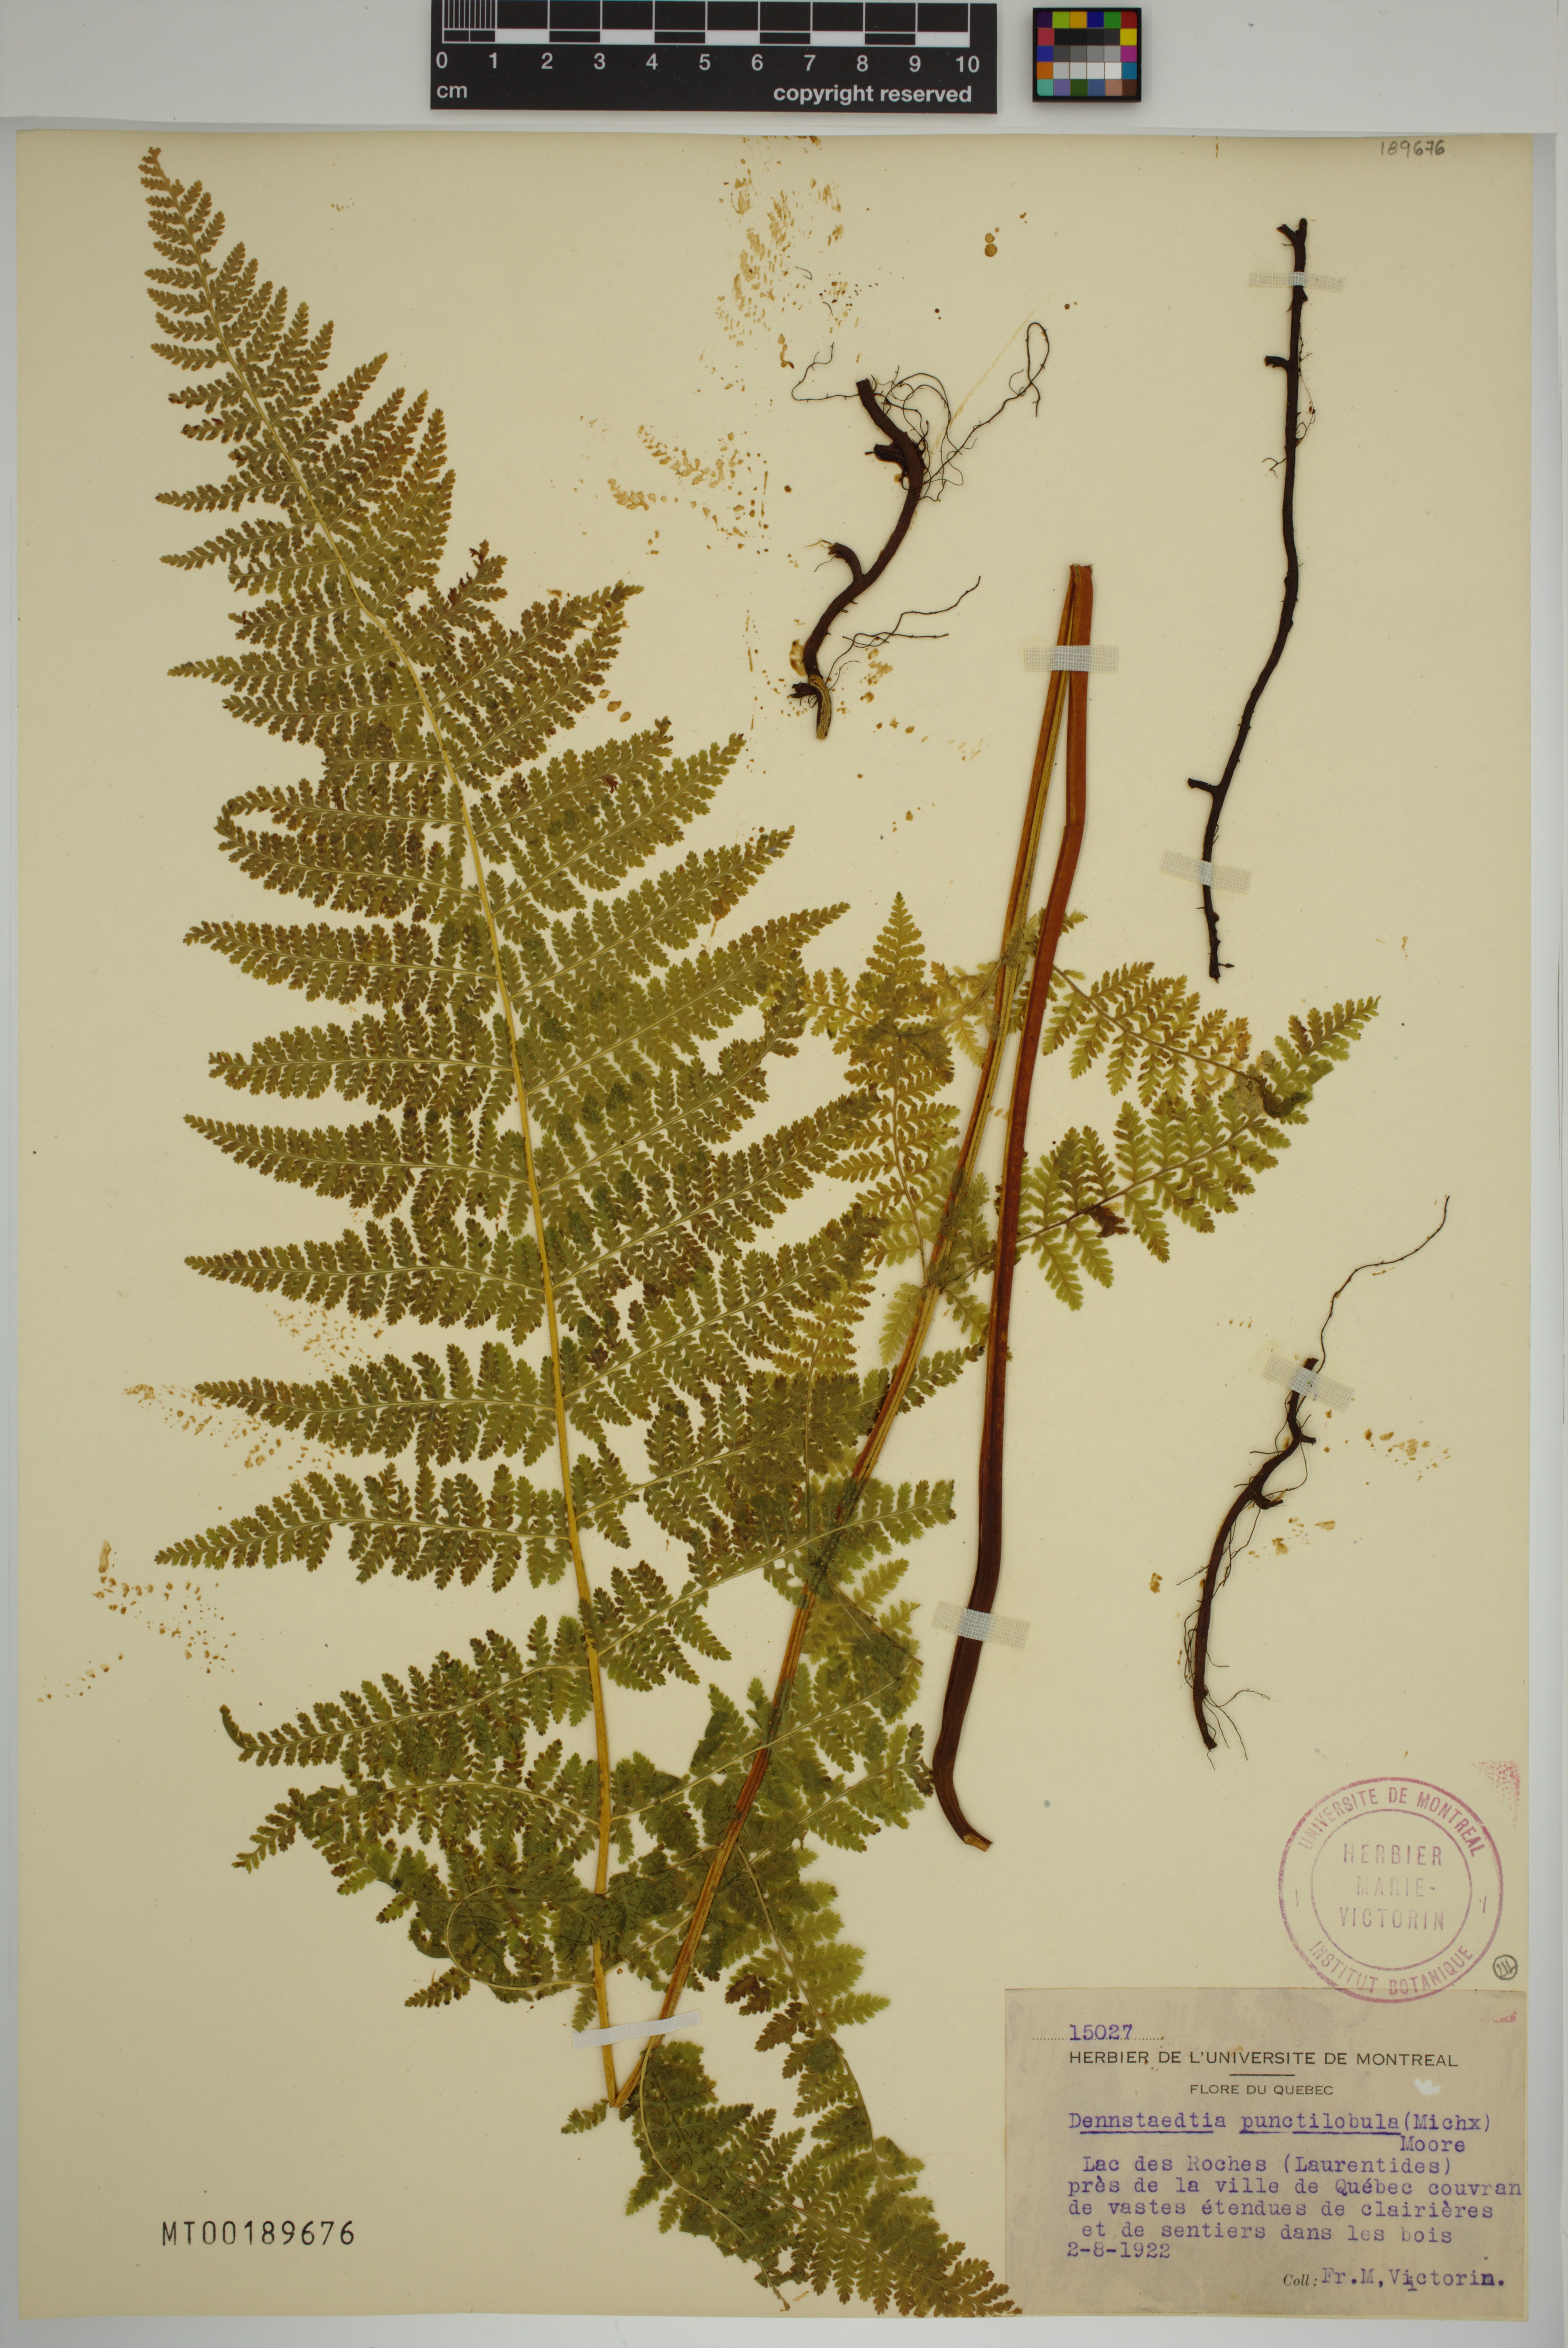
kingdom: Plantae
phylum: Tracheophyta
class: Polypodiopsida
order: Polypodiales
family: Dennstaedtiaceae
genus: Sitobolium
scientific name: Sitobolium punctilobum
